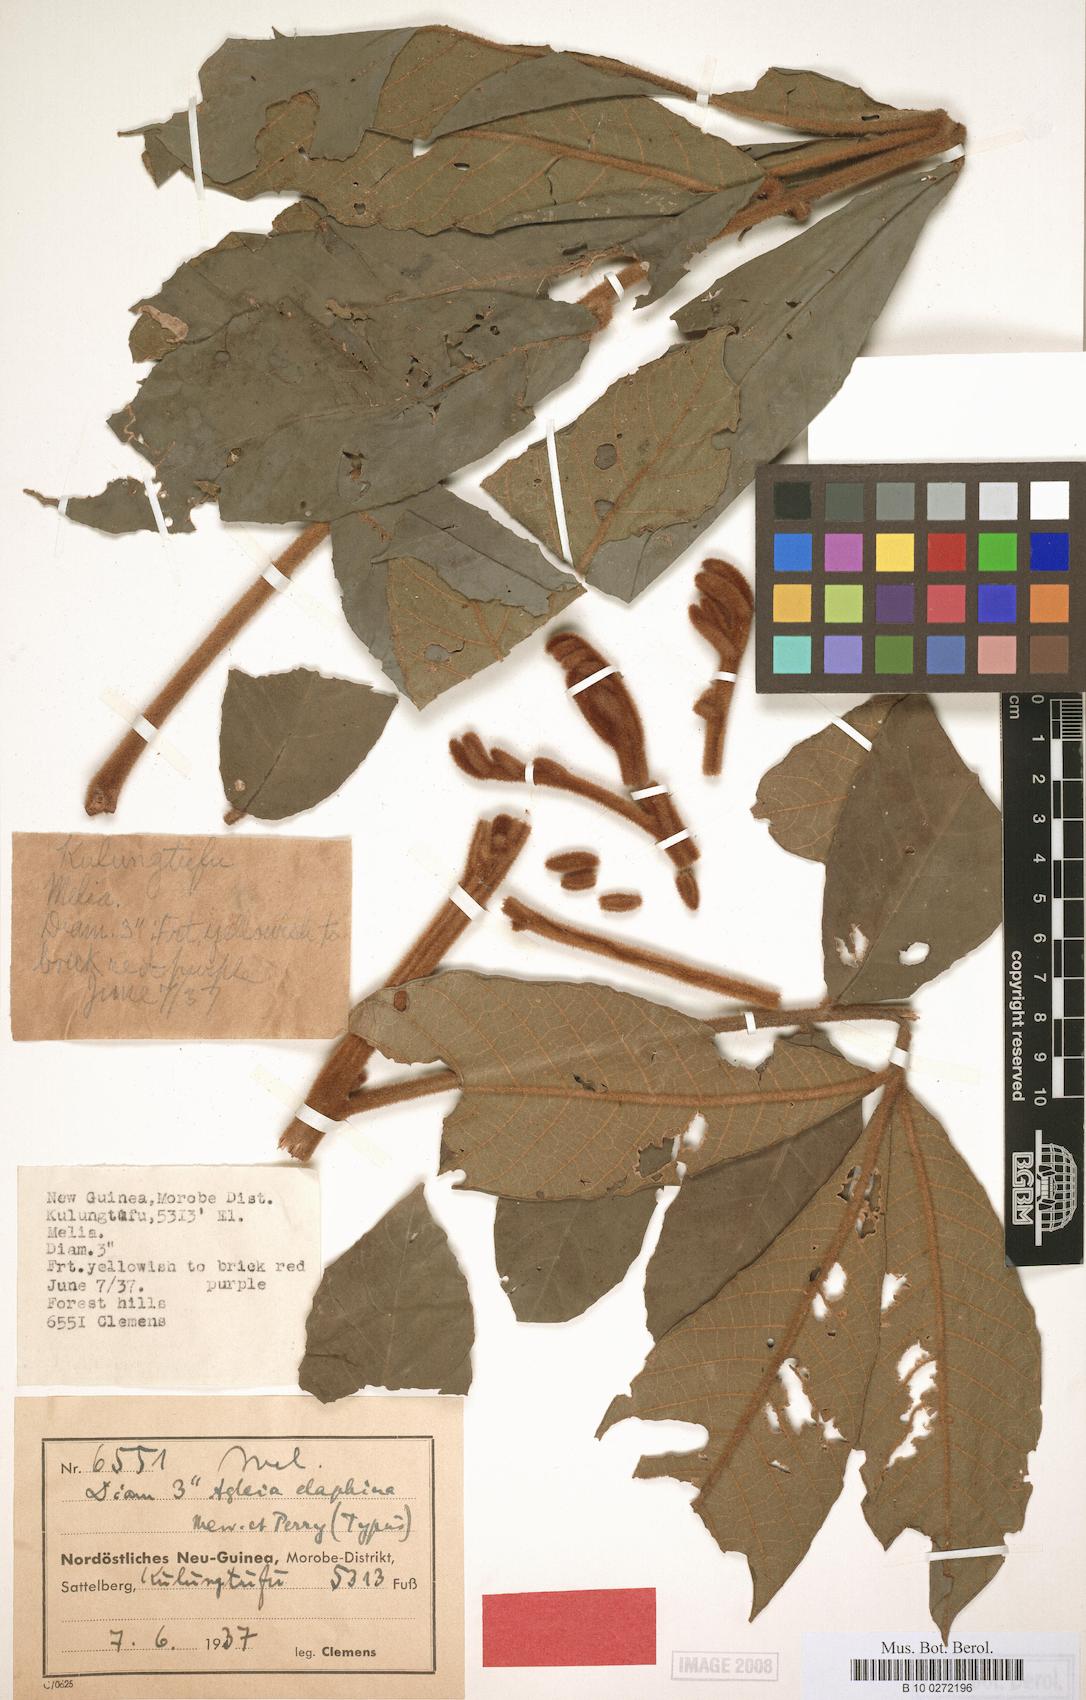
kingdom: Plantae
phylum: Tracheophyta
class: Magnoliopsida
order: Sapindales
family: Meliaceae
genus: Aglaia
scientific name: Aglaia tomentosa
